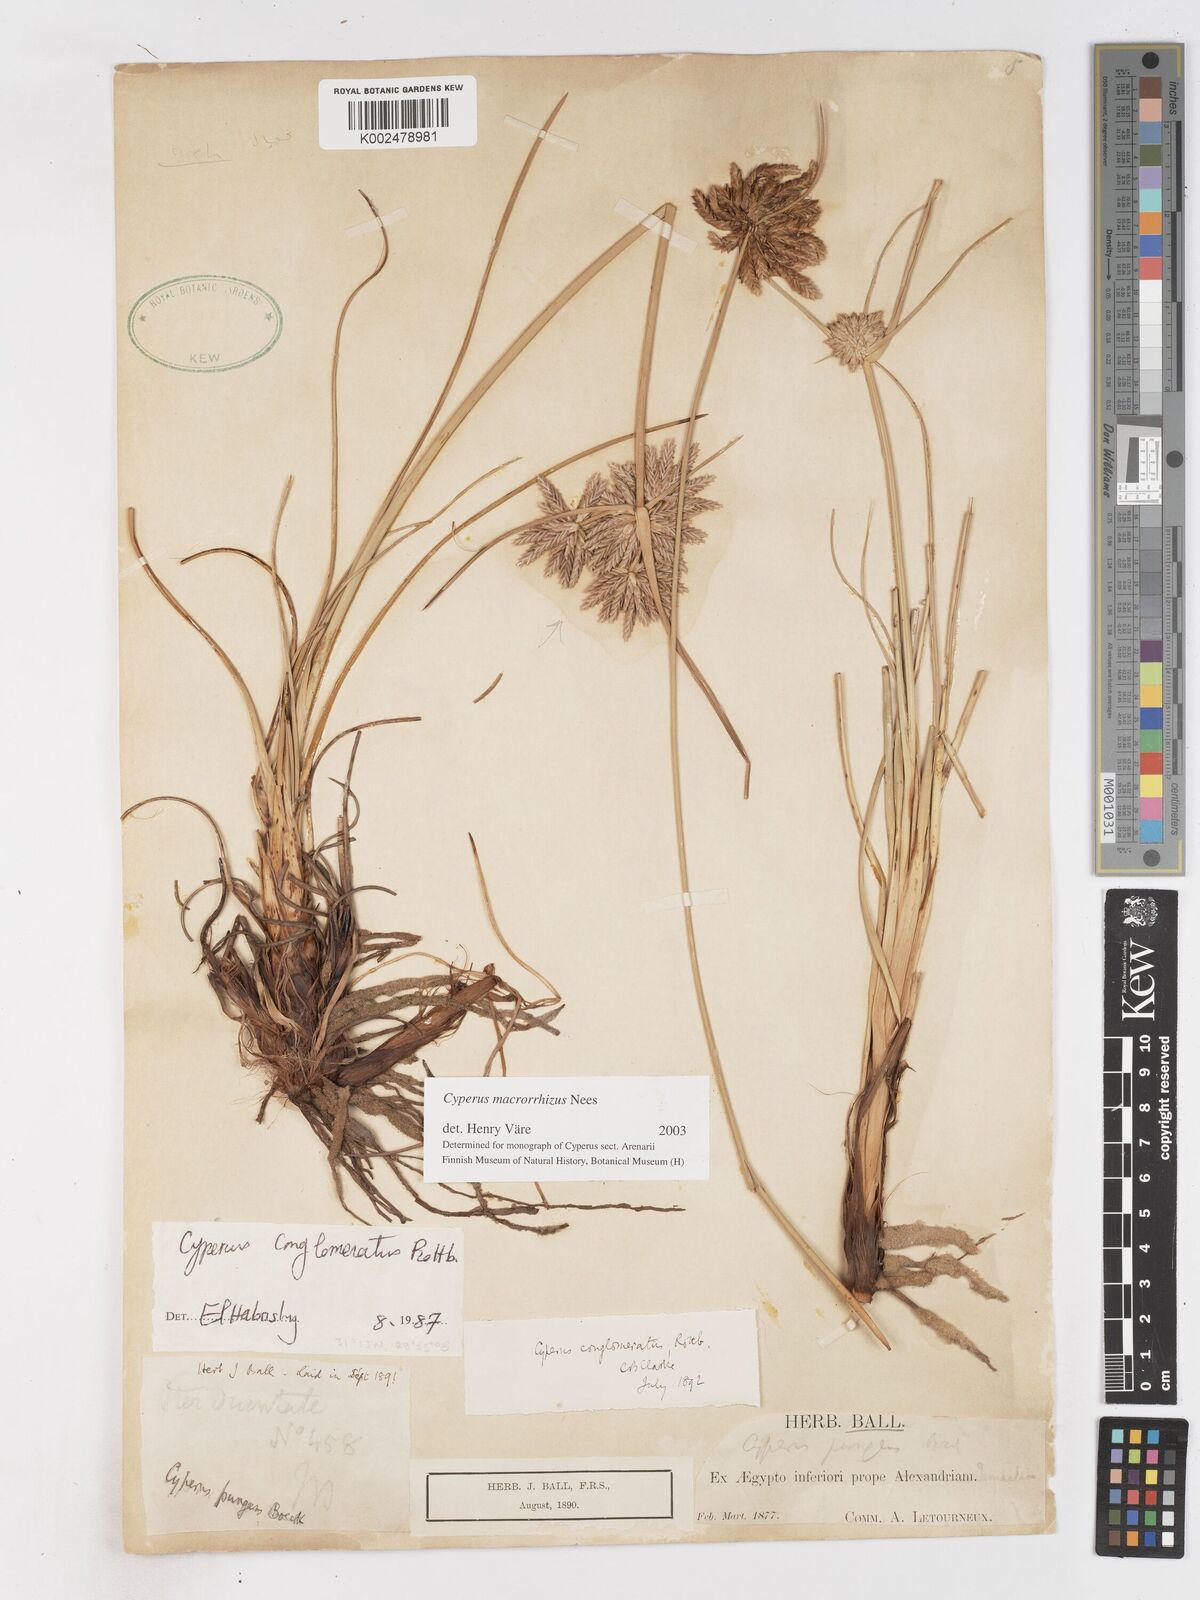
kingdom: Plantae
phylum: Tracheophyta
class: Liliopsida
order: Poales
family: Cyperaceae
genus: Cyperus
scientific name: Cyperus macrorrhizus
